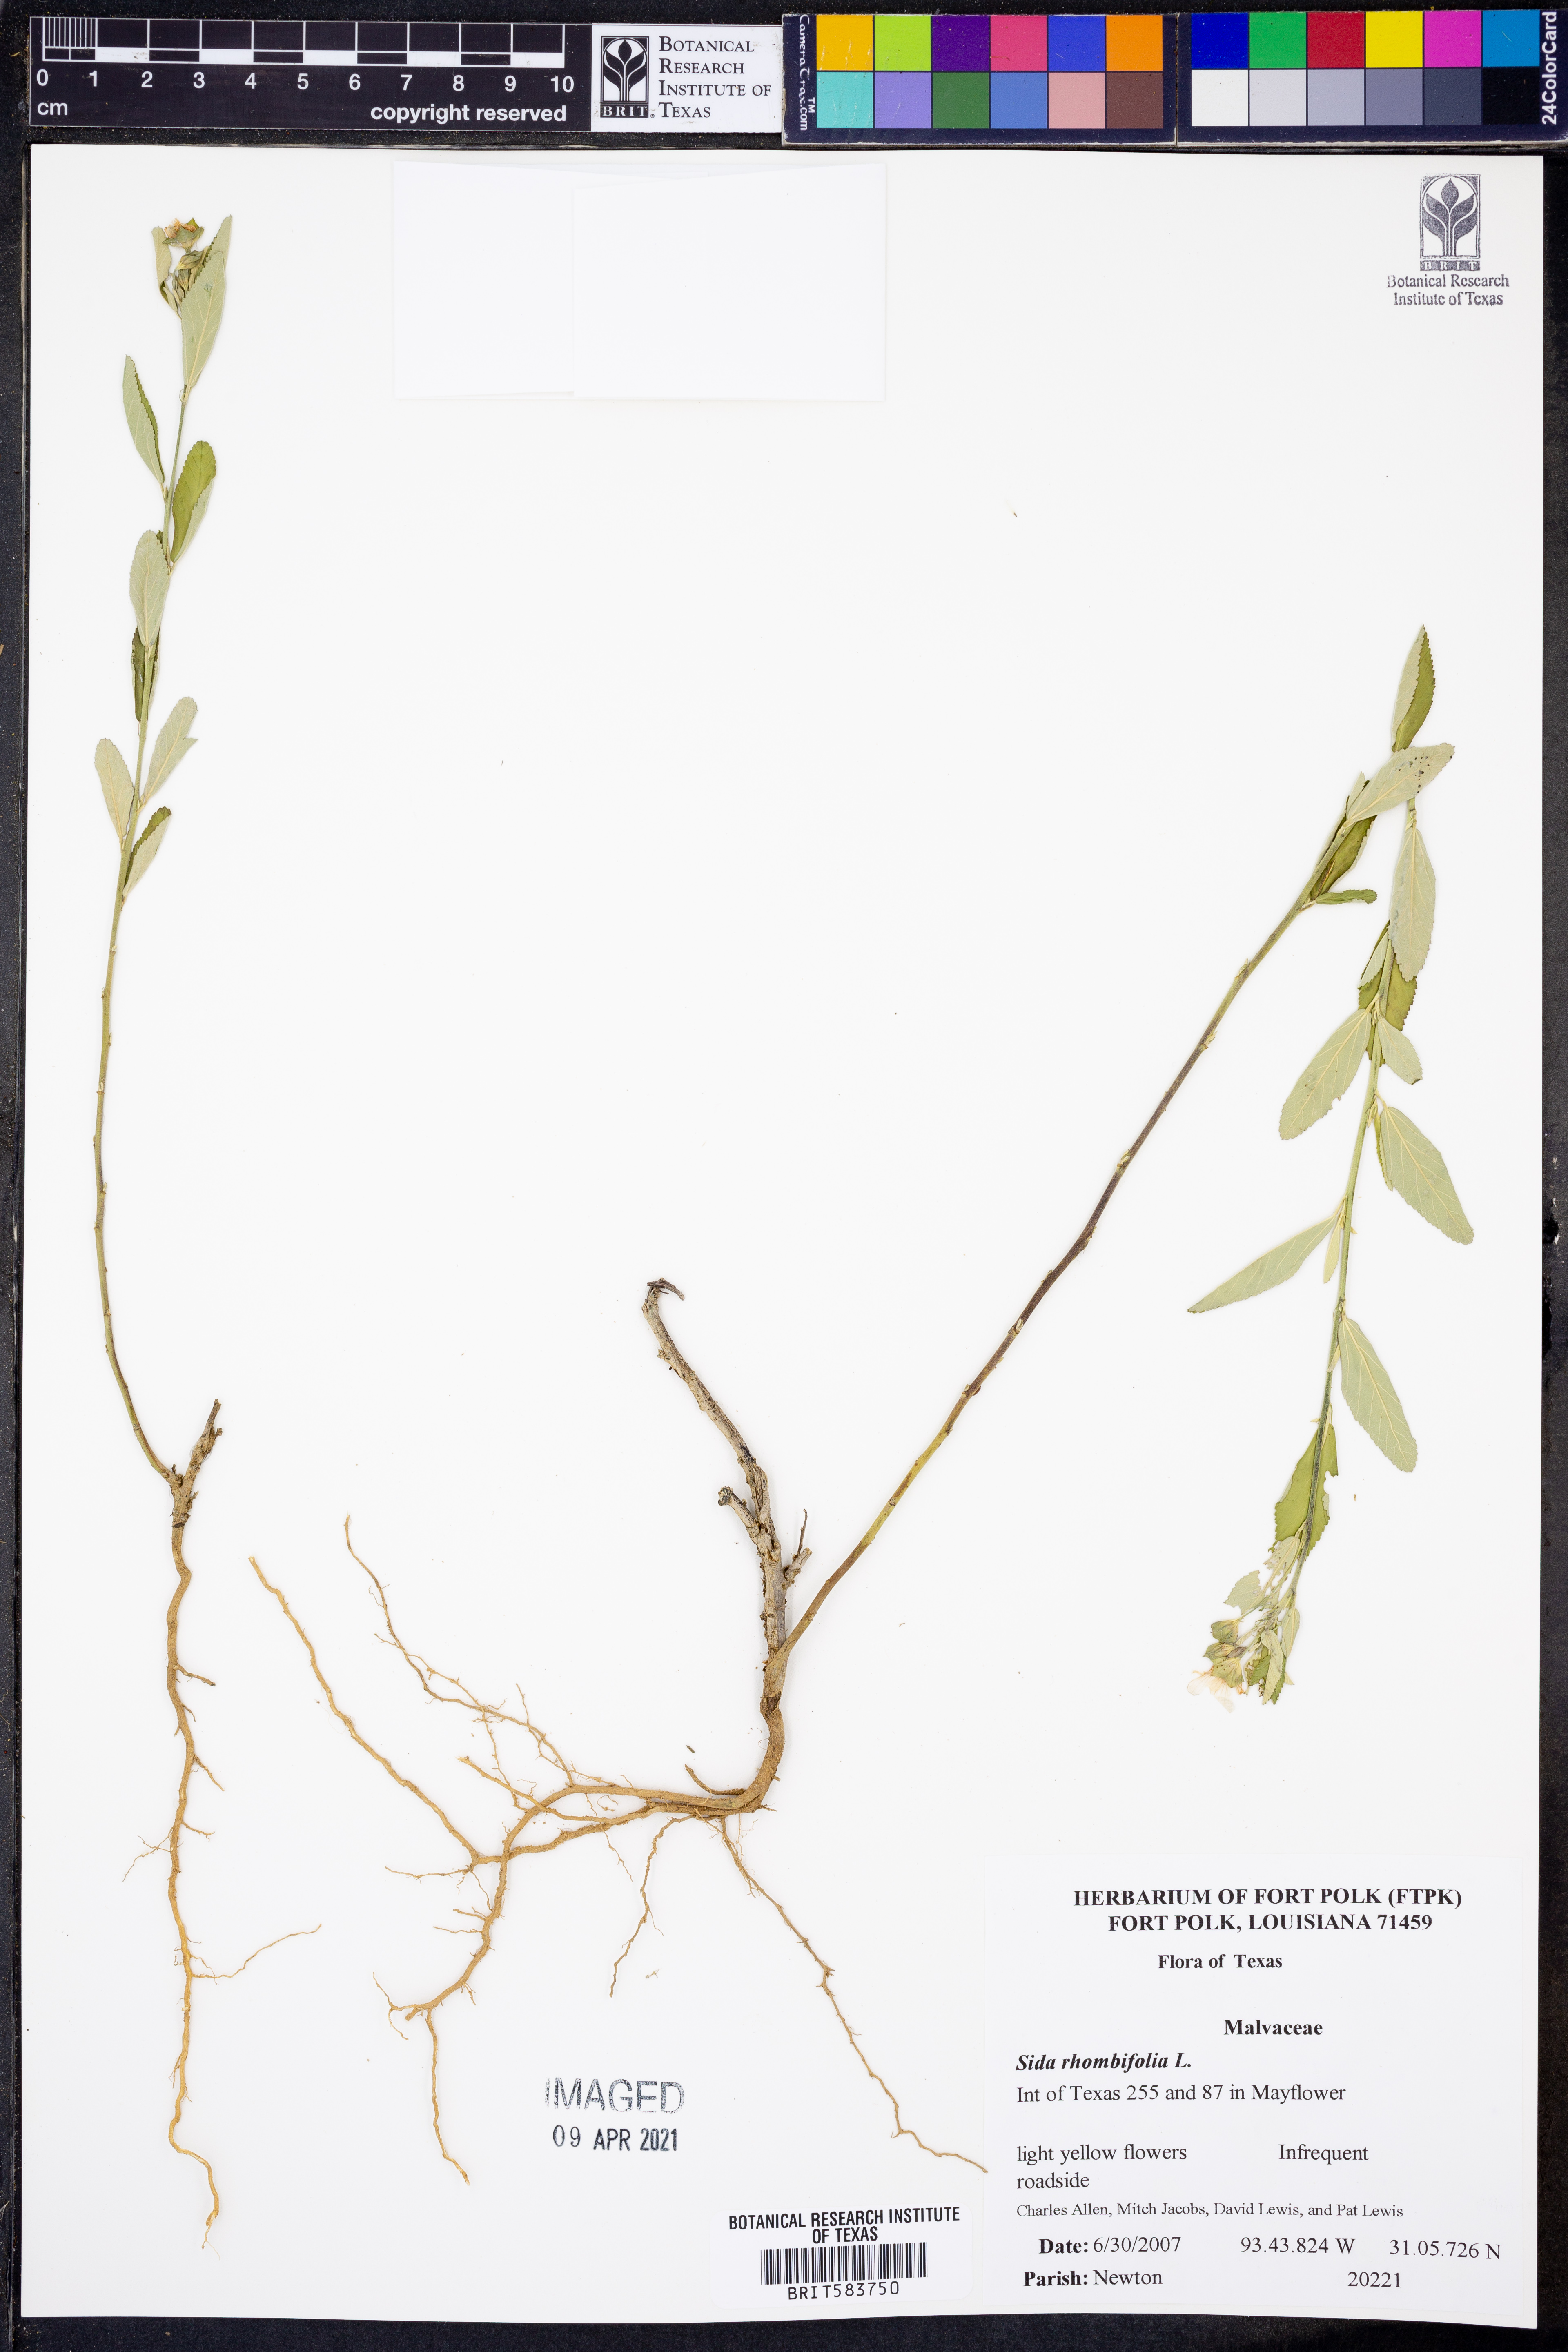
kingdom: Plantae
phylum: Tracheophyta
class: Magnoliopsida
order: Malvales
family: Malvaceae
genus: Sida
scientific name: Sida rhombifolia
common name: Queensland-hemp
